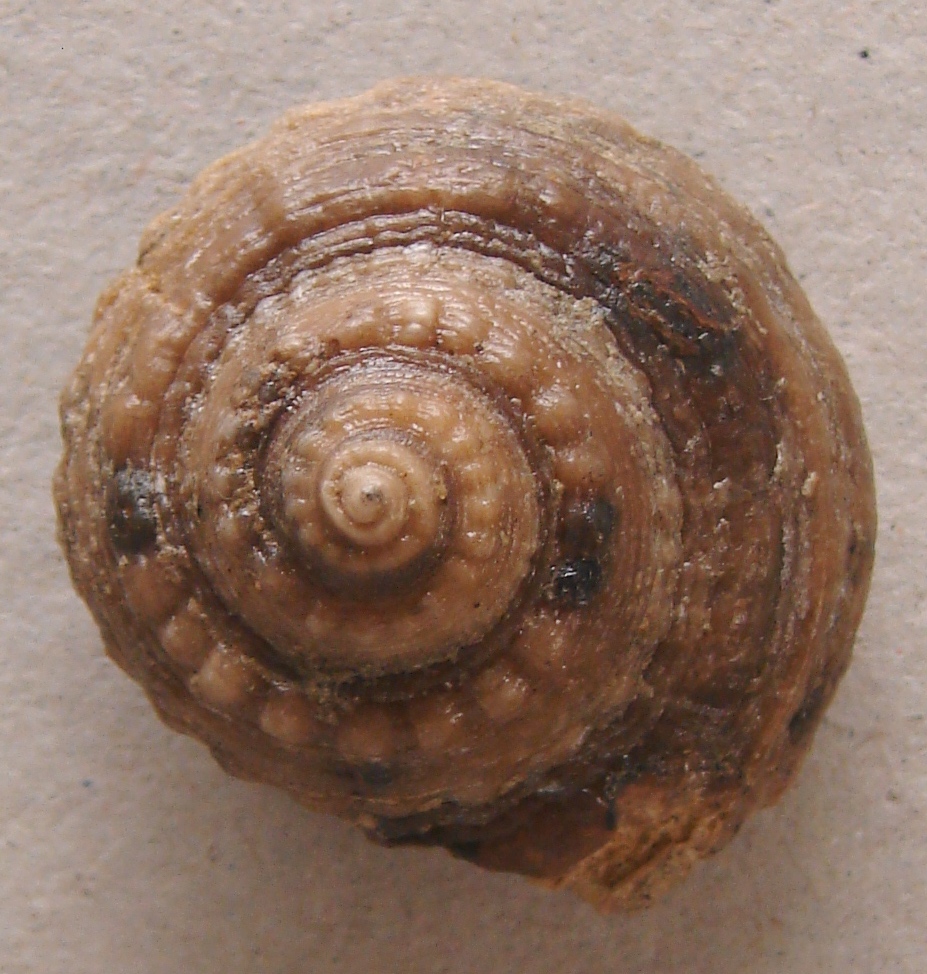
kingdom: Animalia
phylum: Mollusca
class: Gastropoda
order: Pleurotomariida
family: Pleurotomariidae
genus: Obornella
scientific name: Obornella Pleurotomaria lentiformis
